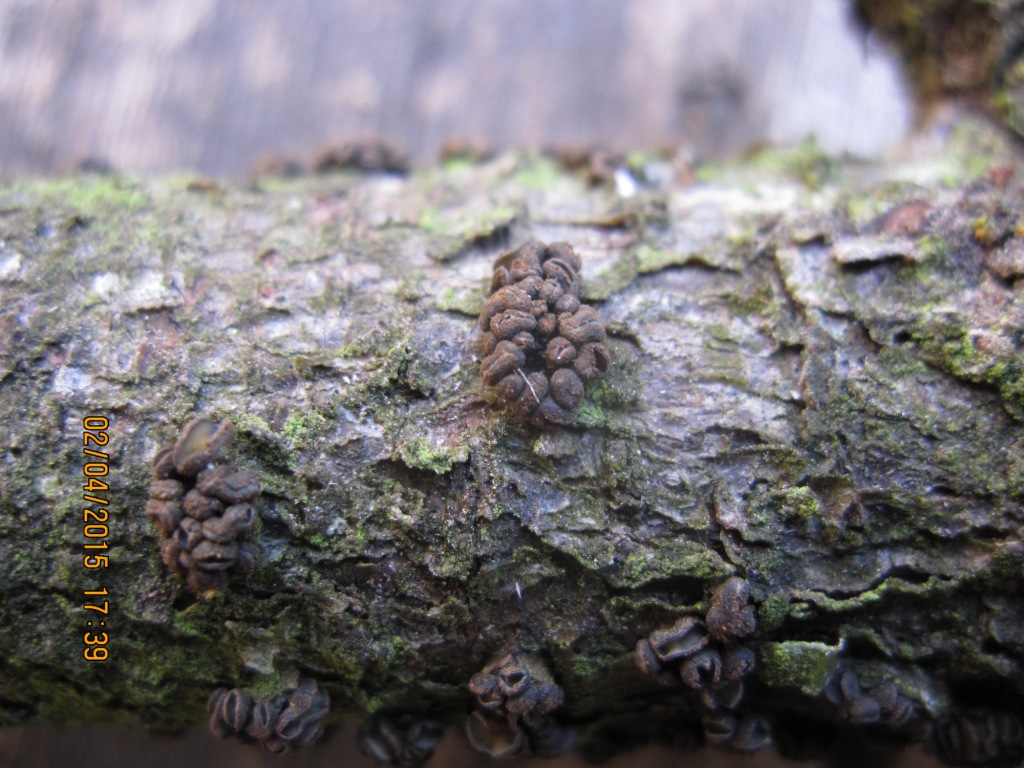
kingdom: Fungi
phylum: Ascomycota
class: Leotiomycetes
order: Helotiales
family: Cenangiaceae
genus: Cenangium
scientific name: Cenangium ferruginosum
